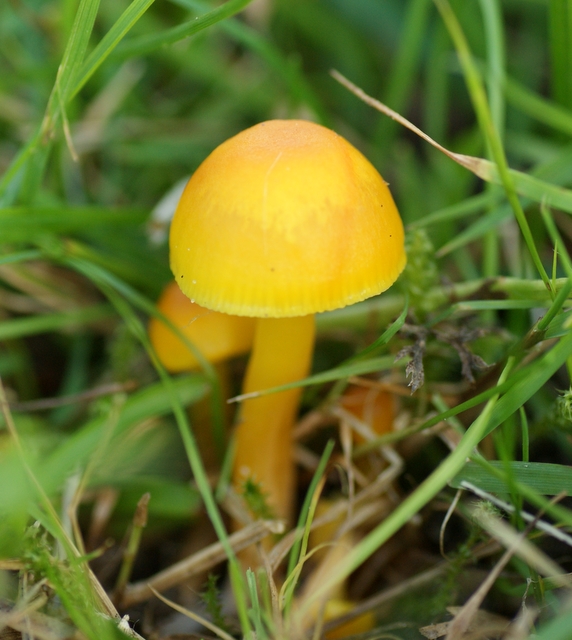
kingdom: Fungi
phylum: Basidiomycota
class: Agaricomycetes
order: Agaricales
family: Hygrophoraceae
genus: Hygrocybe
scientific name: Hygrocybe ceracea
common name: voksgul vokshat
